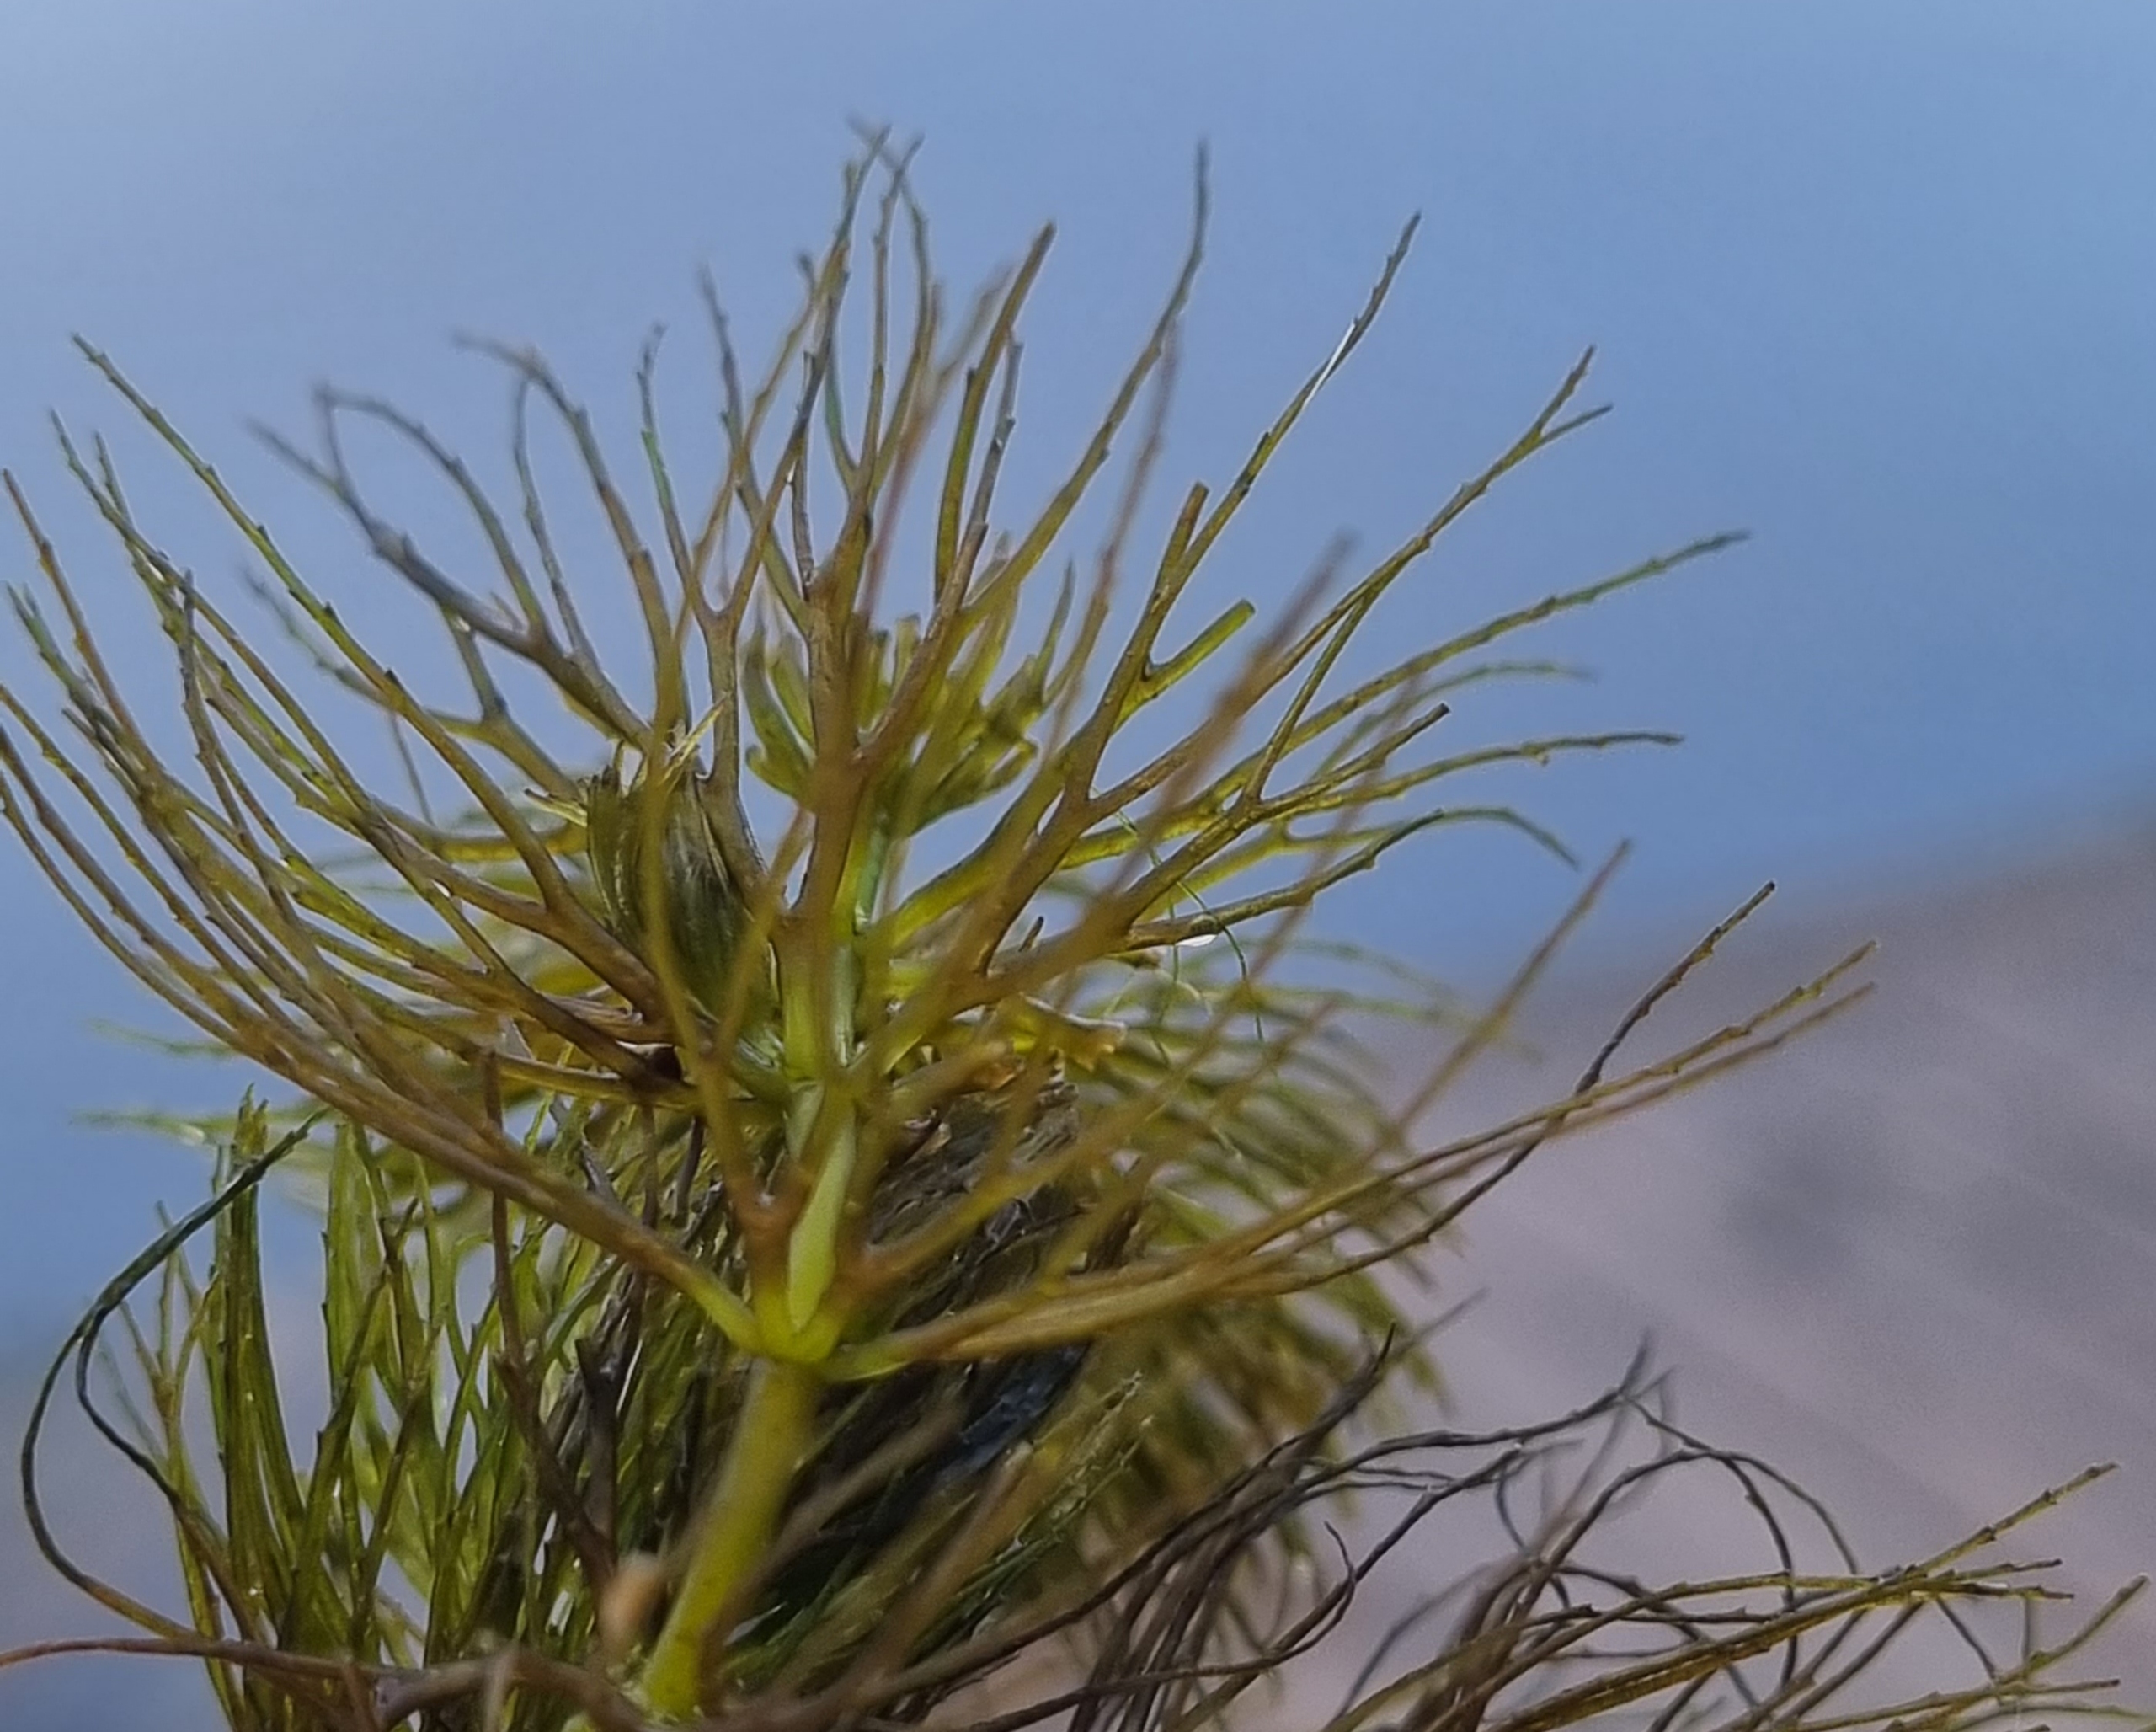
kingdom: Plantae
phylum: Tracheophyta
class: Magnoliopsida
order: Ceratophyllales
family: Ceratophyllaceae
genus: Ceratophyllum
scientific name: Ceratophyllum submersum
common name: Tornløs hornblad
